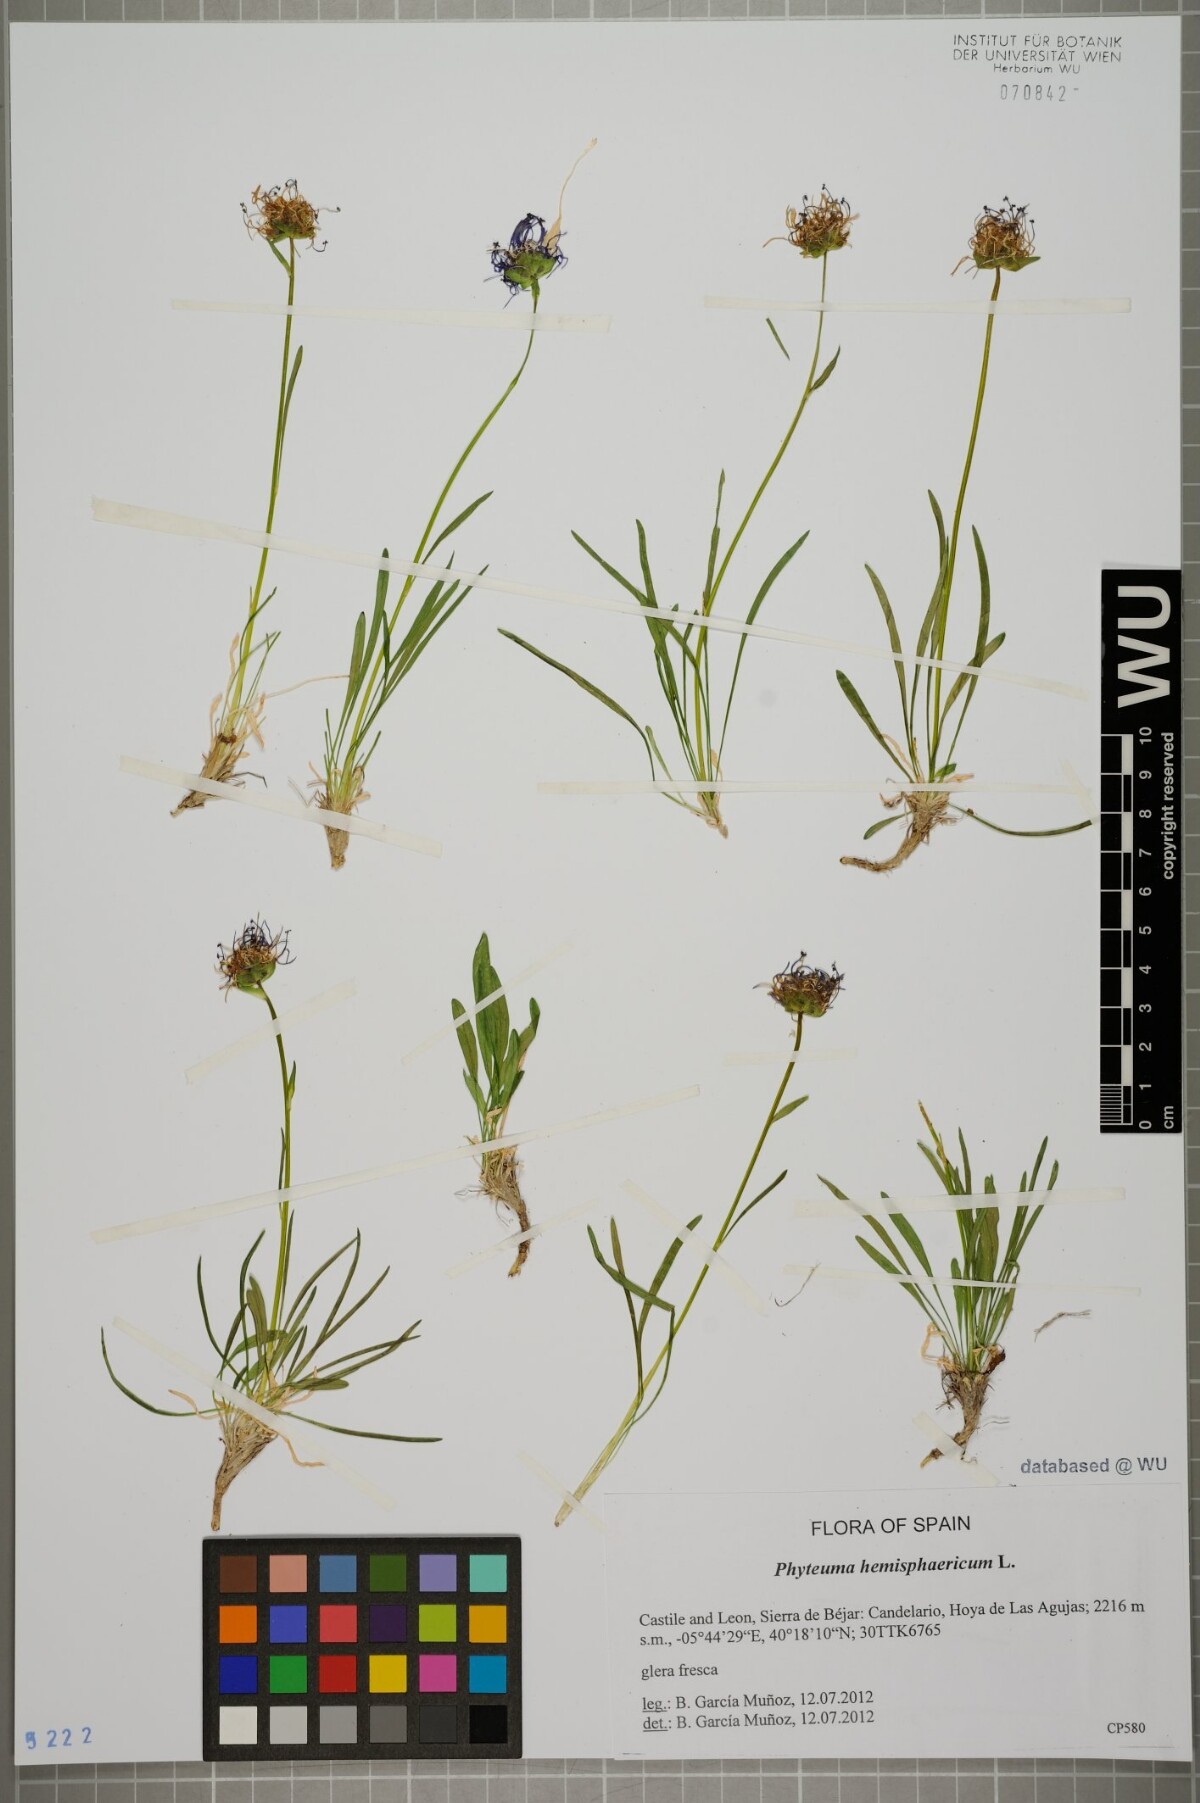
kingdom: Plantae
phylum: Tracheophyta
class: Magnoliopsida
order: Asterales
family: Campanulaceae
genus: Phyteuma
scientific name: Phyteuma hemisphaericum
